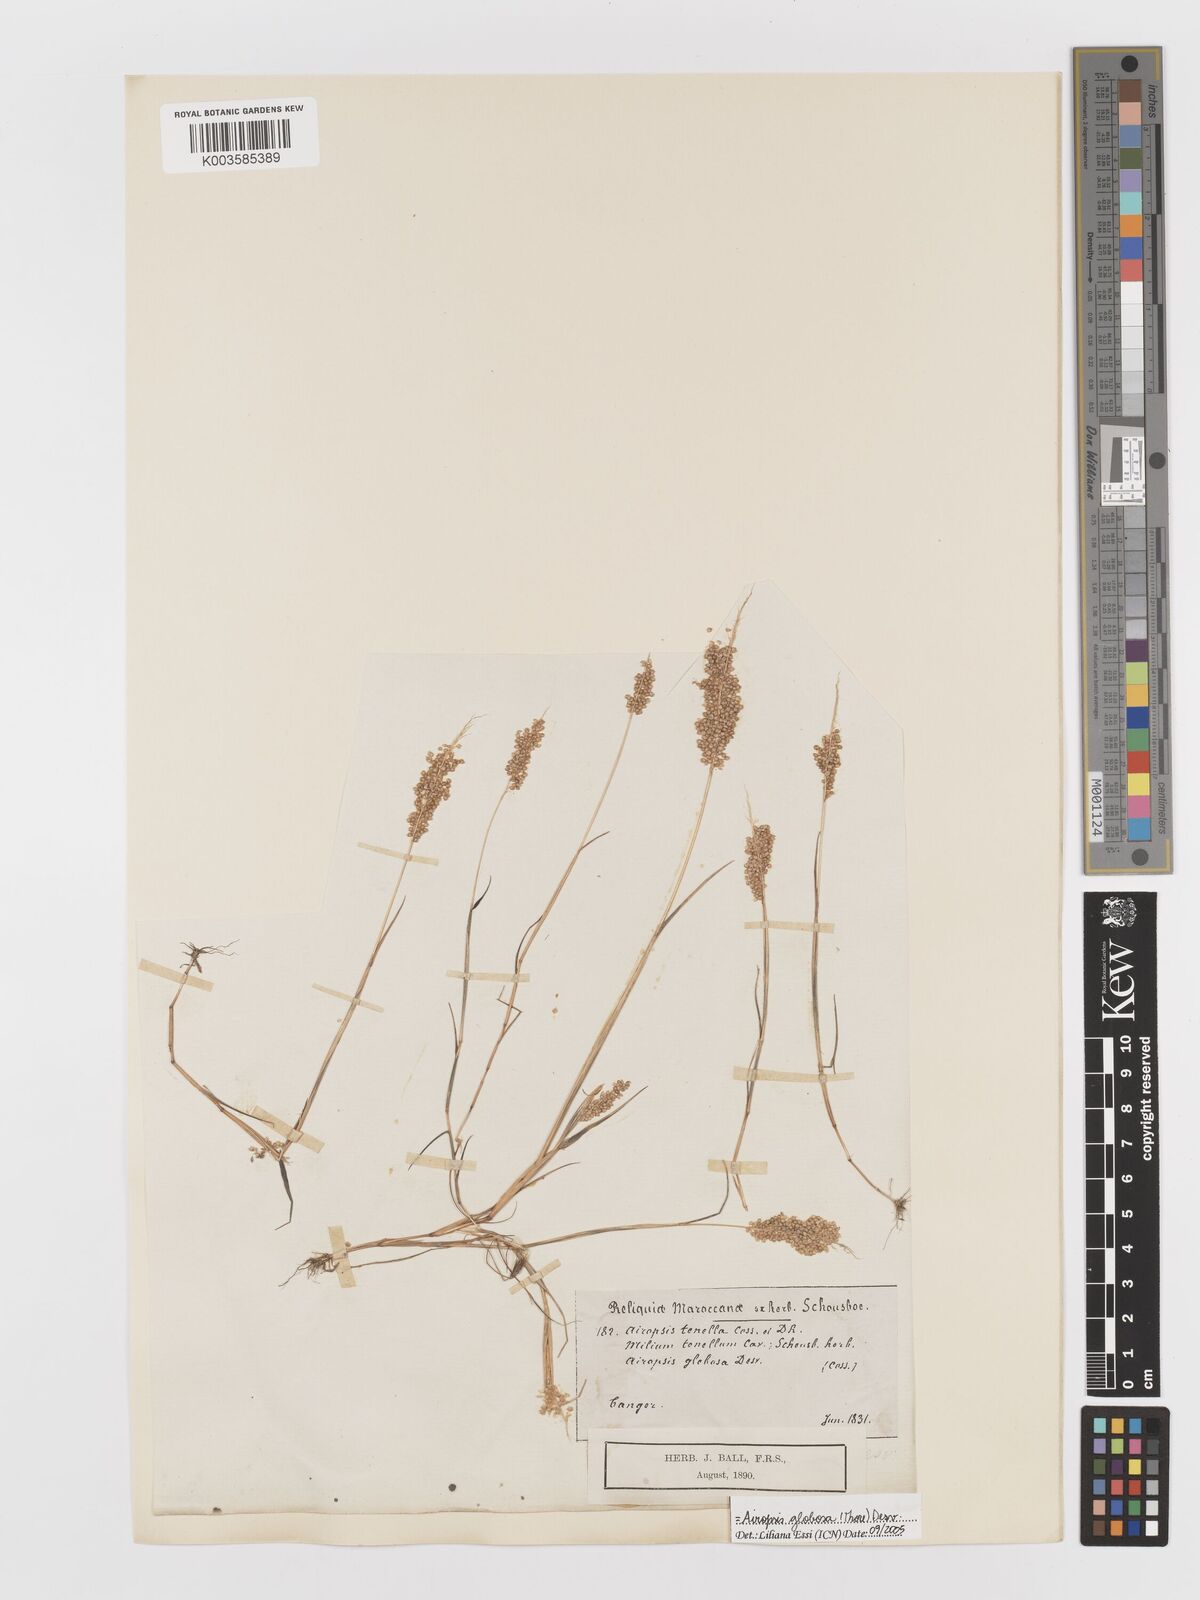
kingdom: Plantae
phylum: Tracheophyta
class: Liliopsida
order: Poales
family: Poaceae
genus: Airopsis
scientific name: Airopsis tenella
